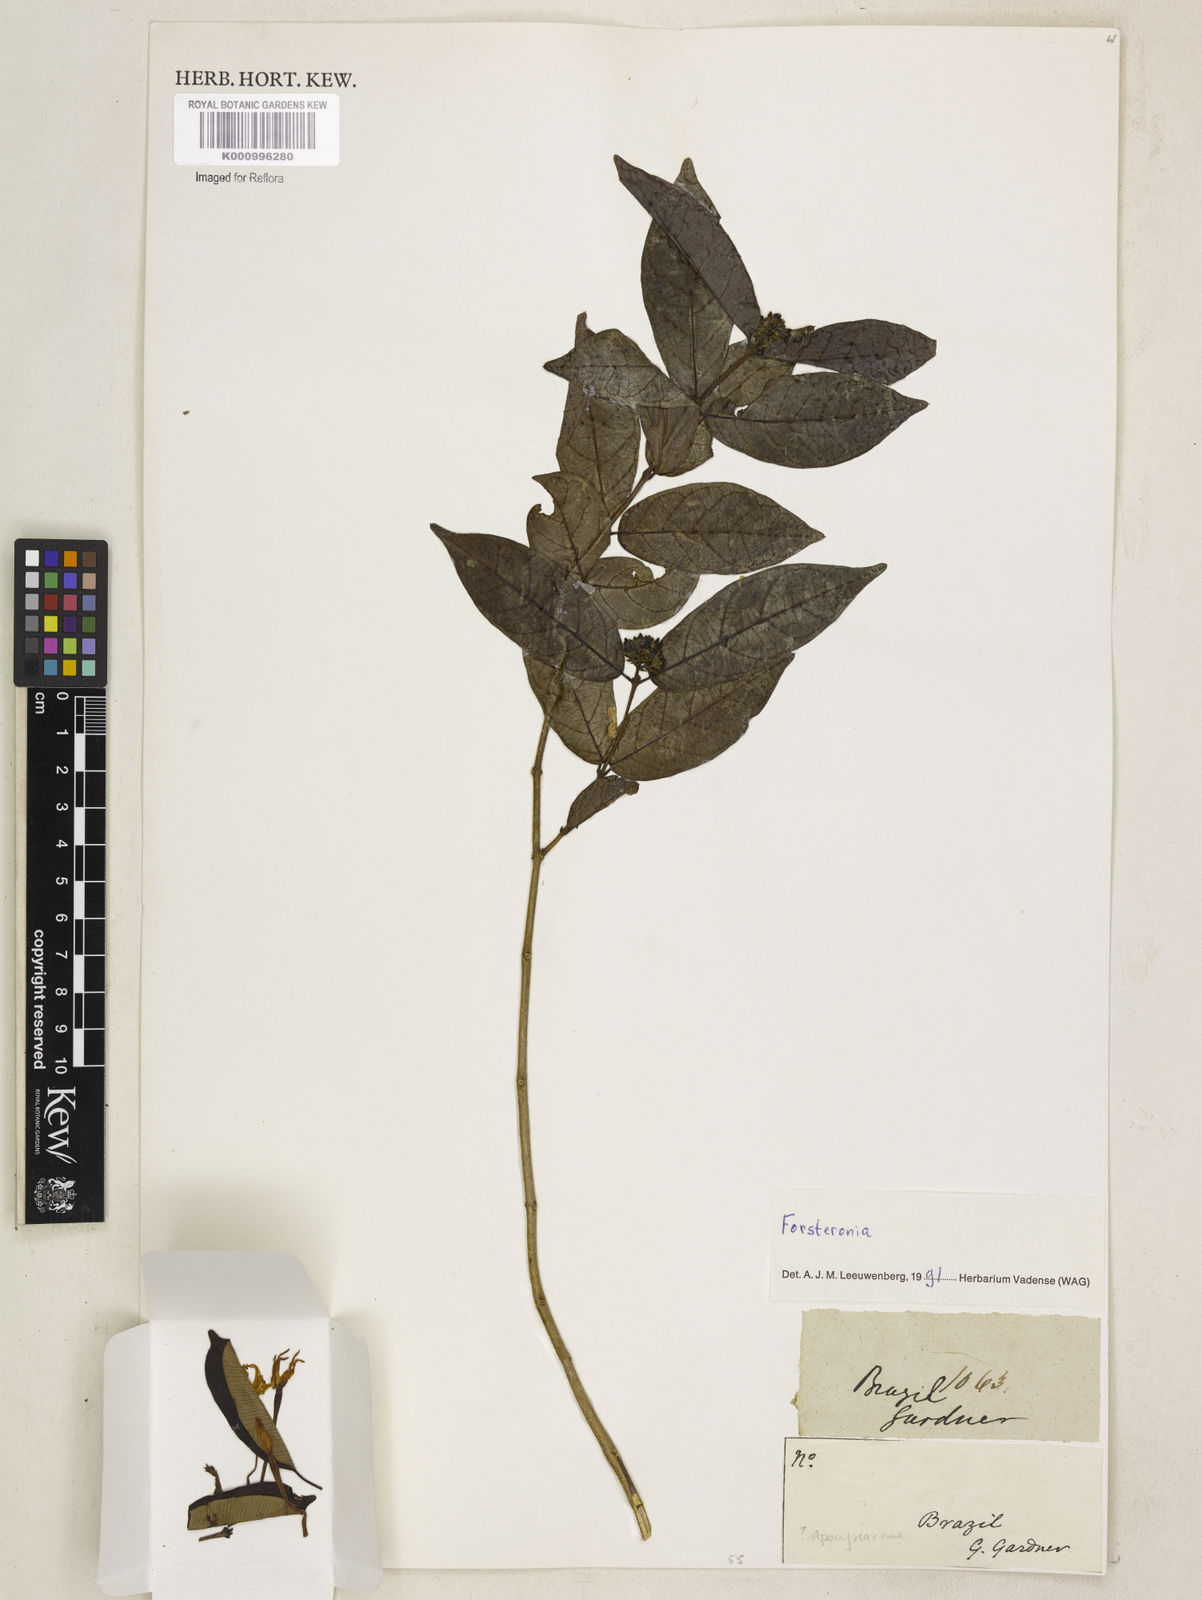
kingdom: Plantae
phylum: Tracheophyta
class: Magnoliopsida
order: Gentianales
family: Apocynaceae
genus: Forsteronia
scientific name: Forsteronia
